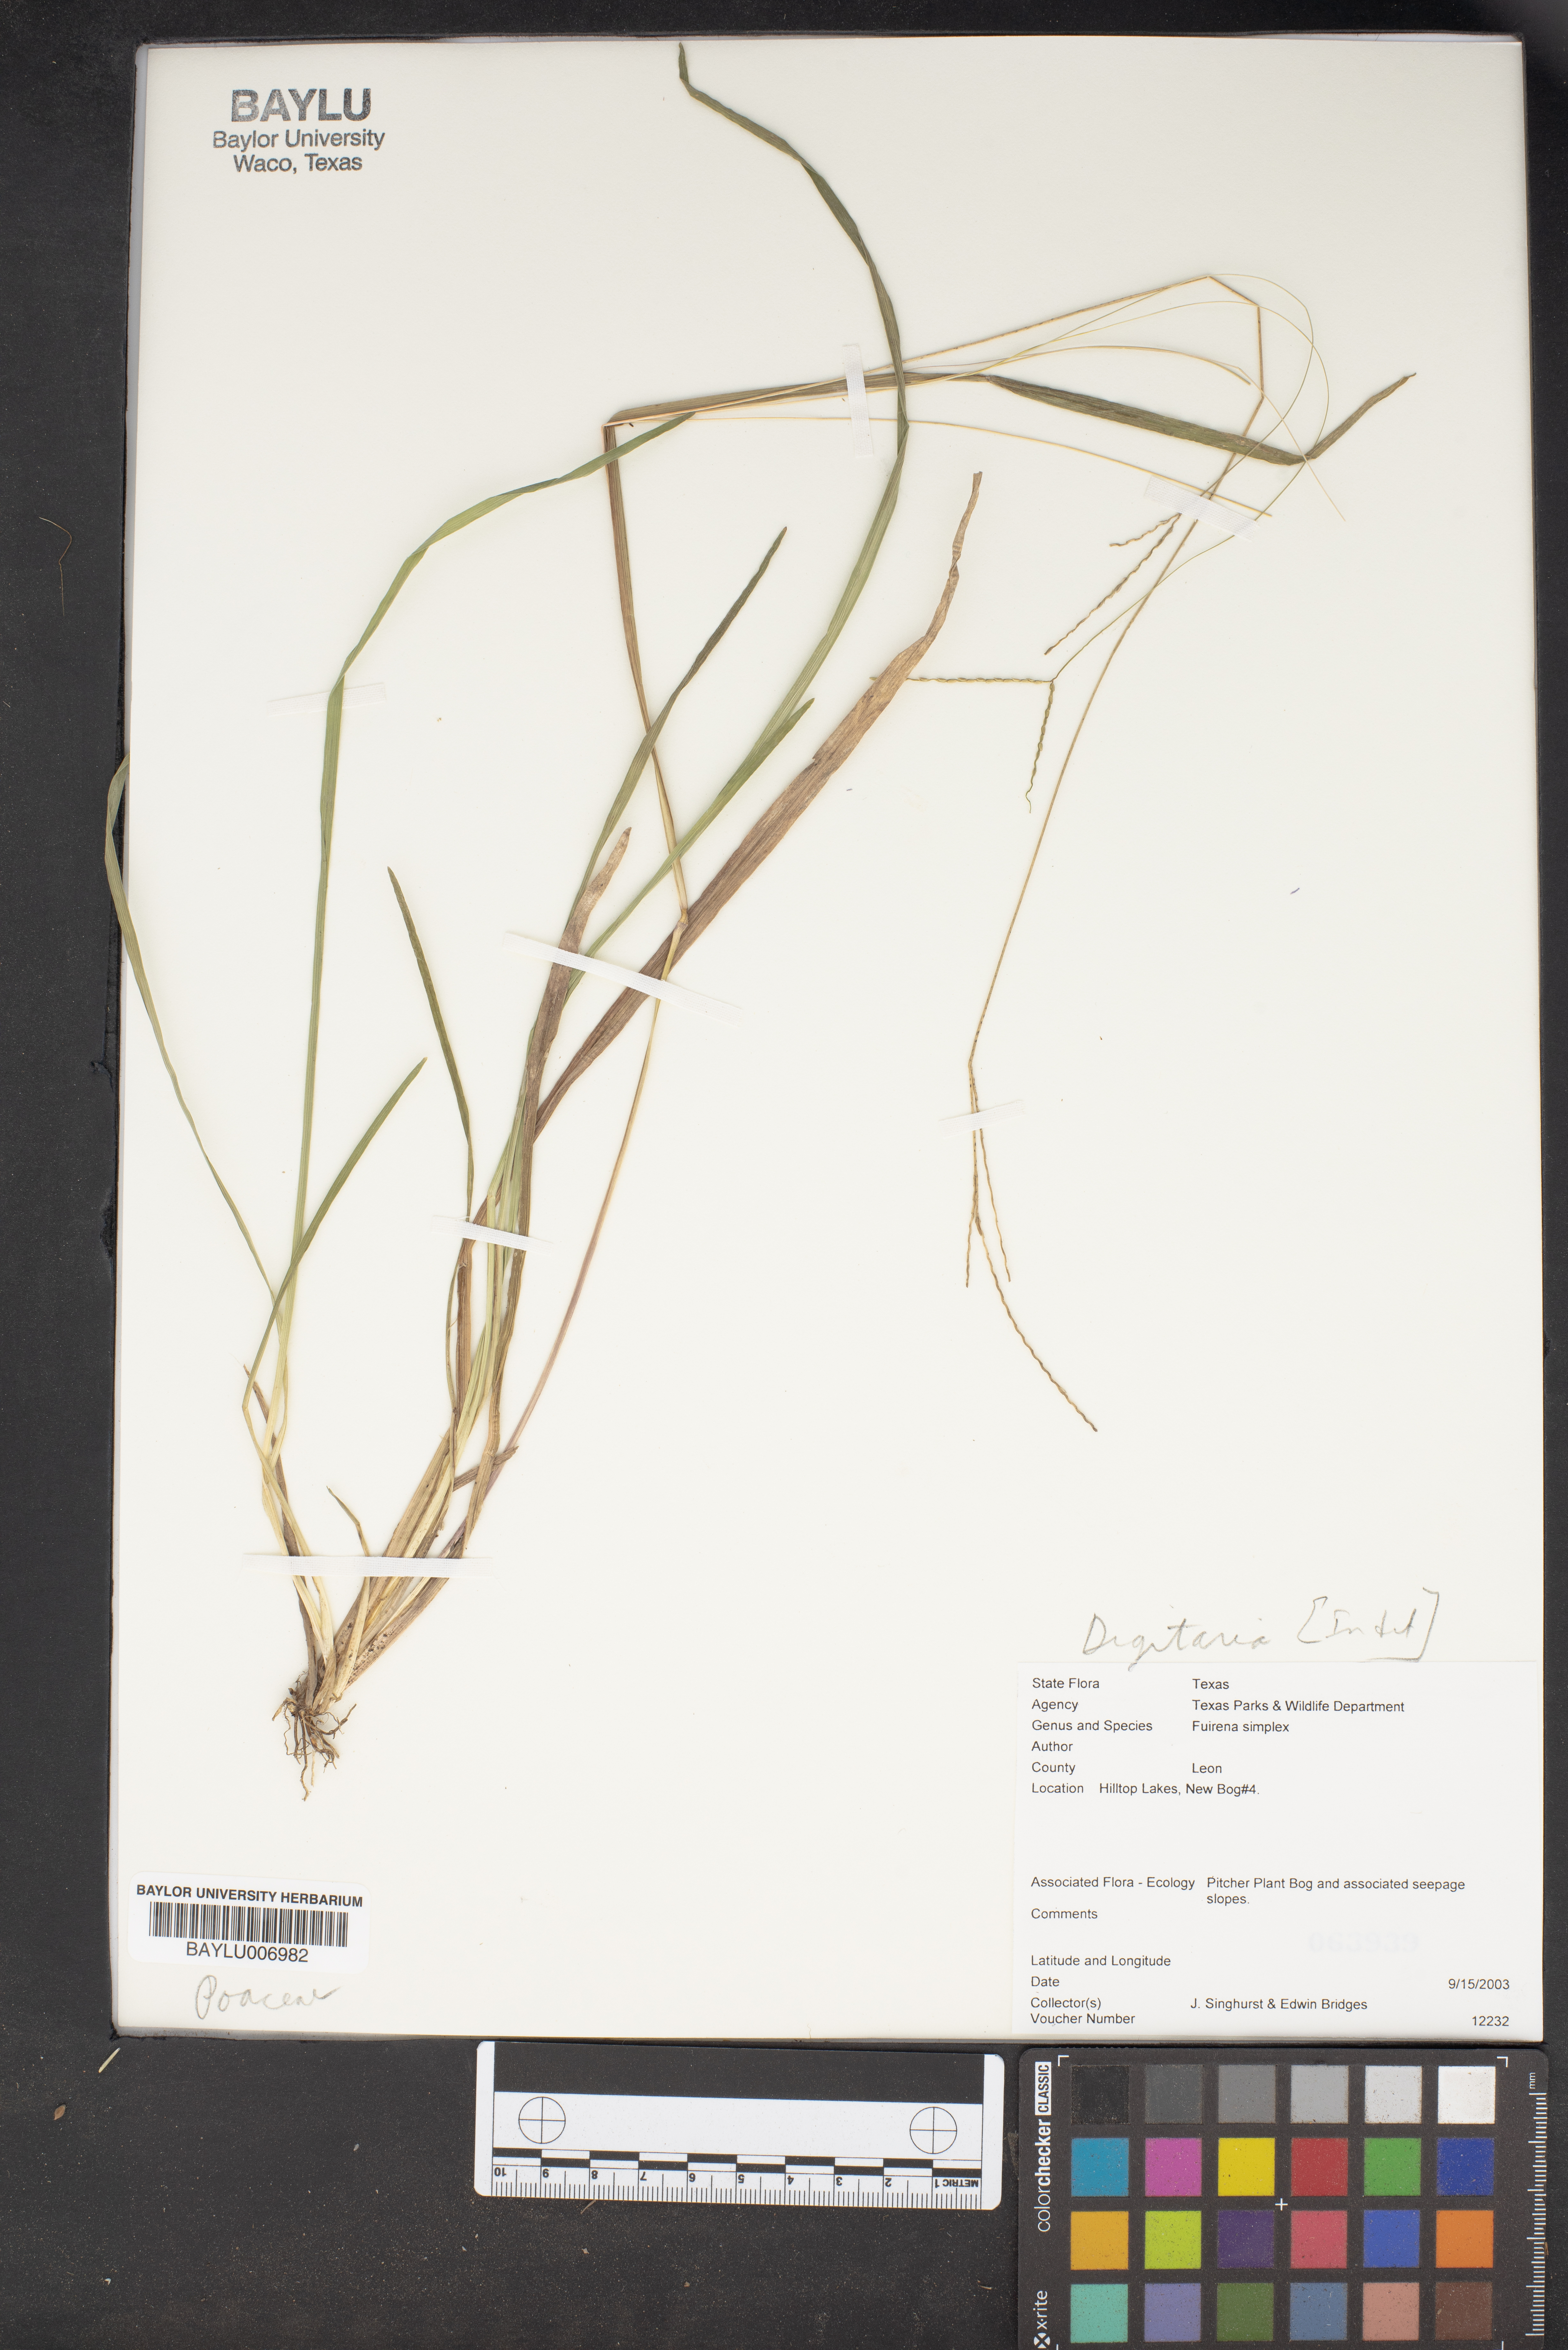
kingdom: Plantae
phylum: Tracheophyta
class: Liliopsida
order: Poales
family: Cyperaceae
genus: Fuirena
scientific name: Fuirena simplex
